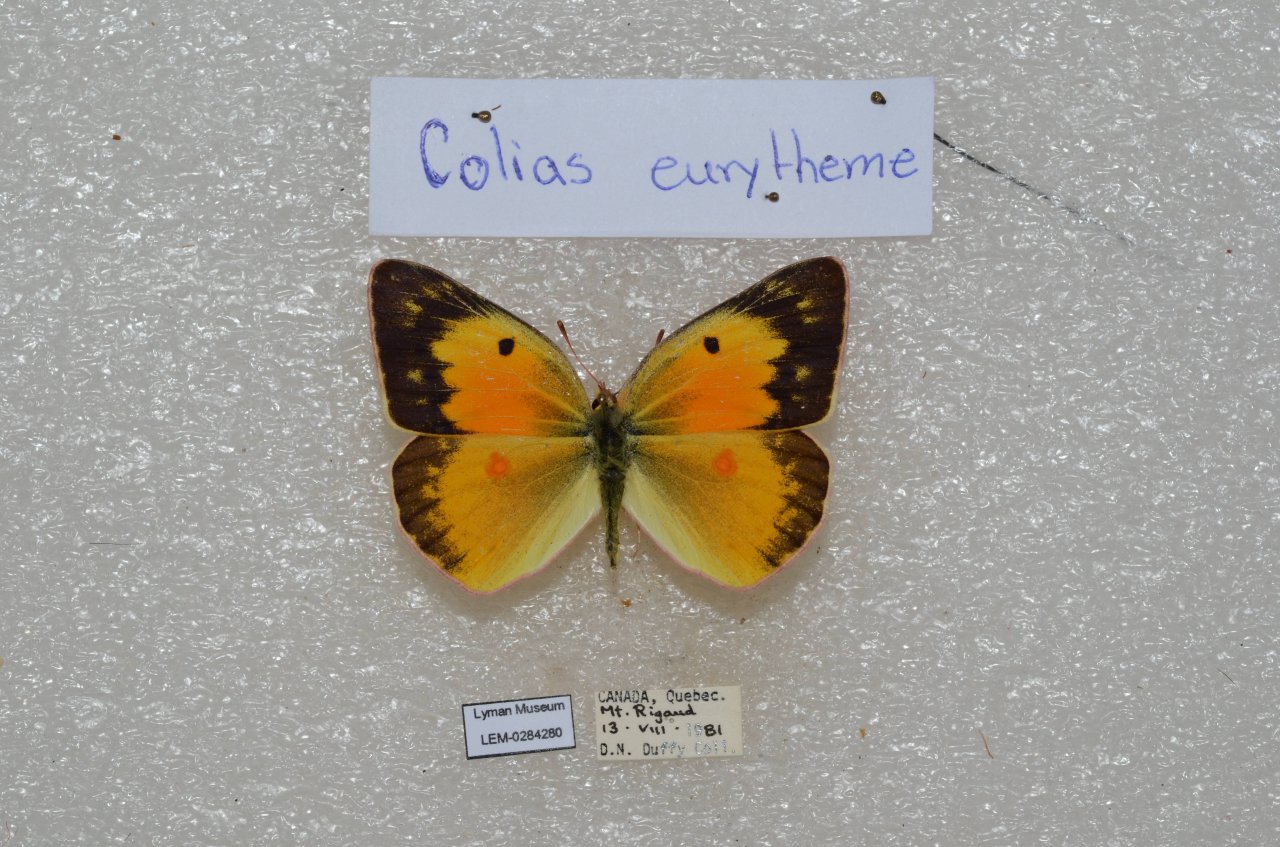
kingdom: Animalia
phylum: Arthropoda
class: Insecta
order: Lepidoptera
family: Pieridae
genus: Colias
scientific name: Colias eurytheme
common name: Orange Sulphur
